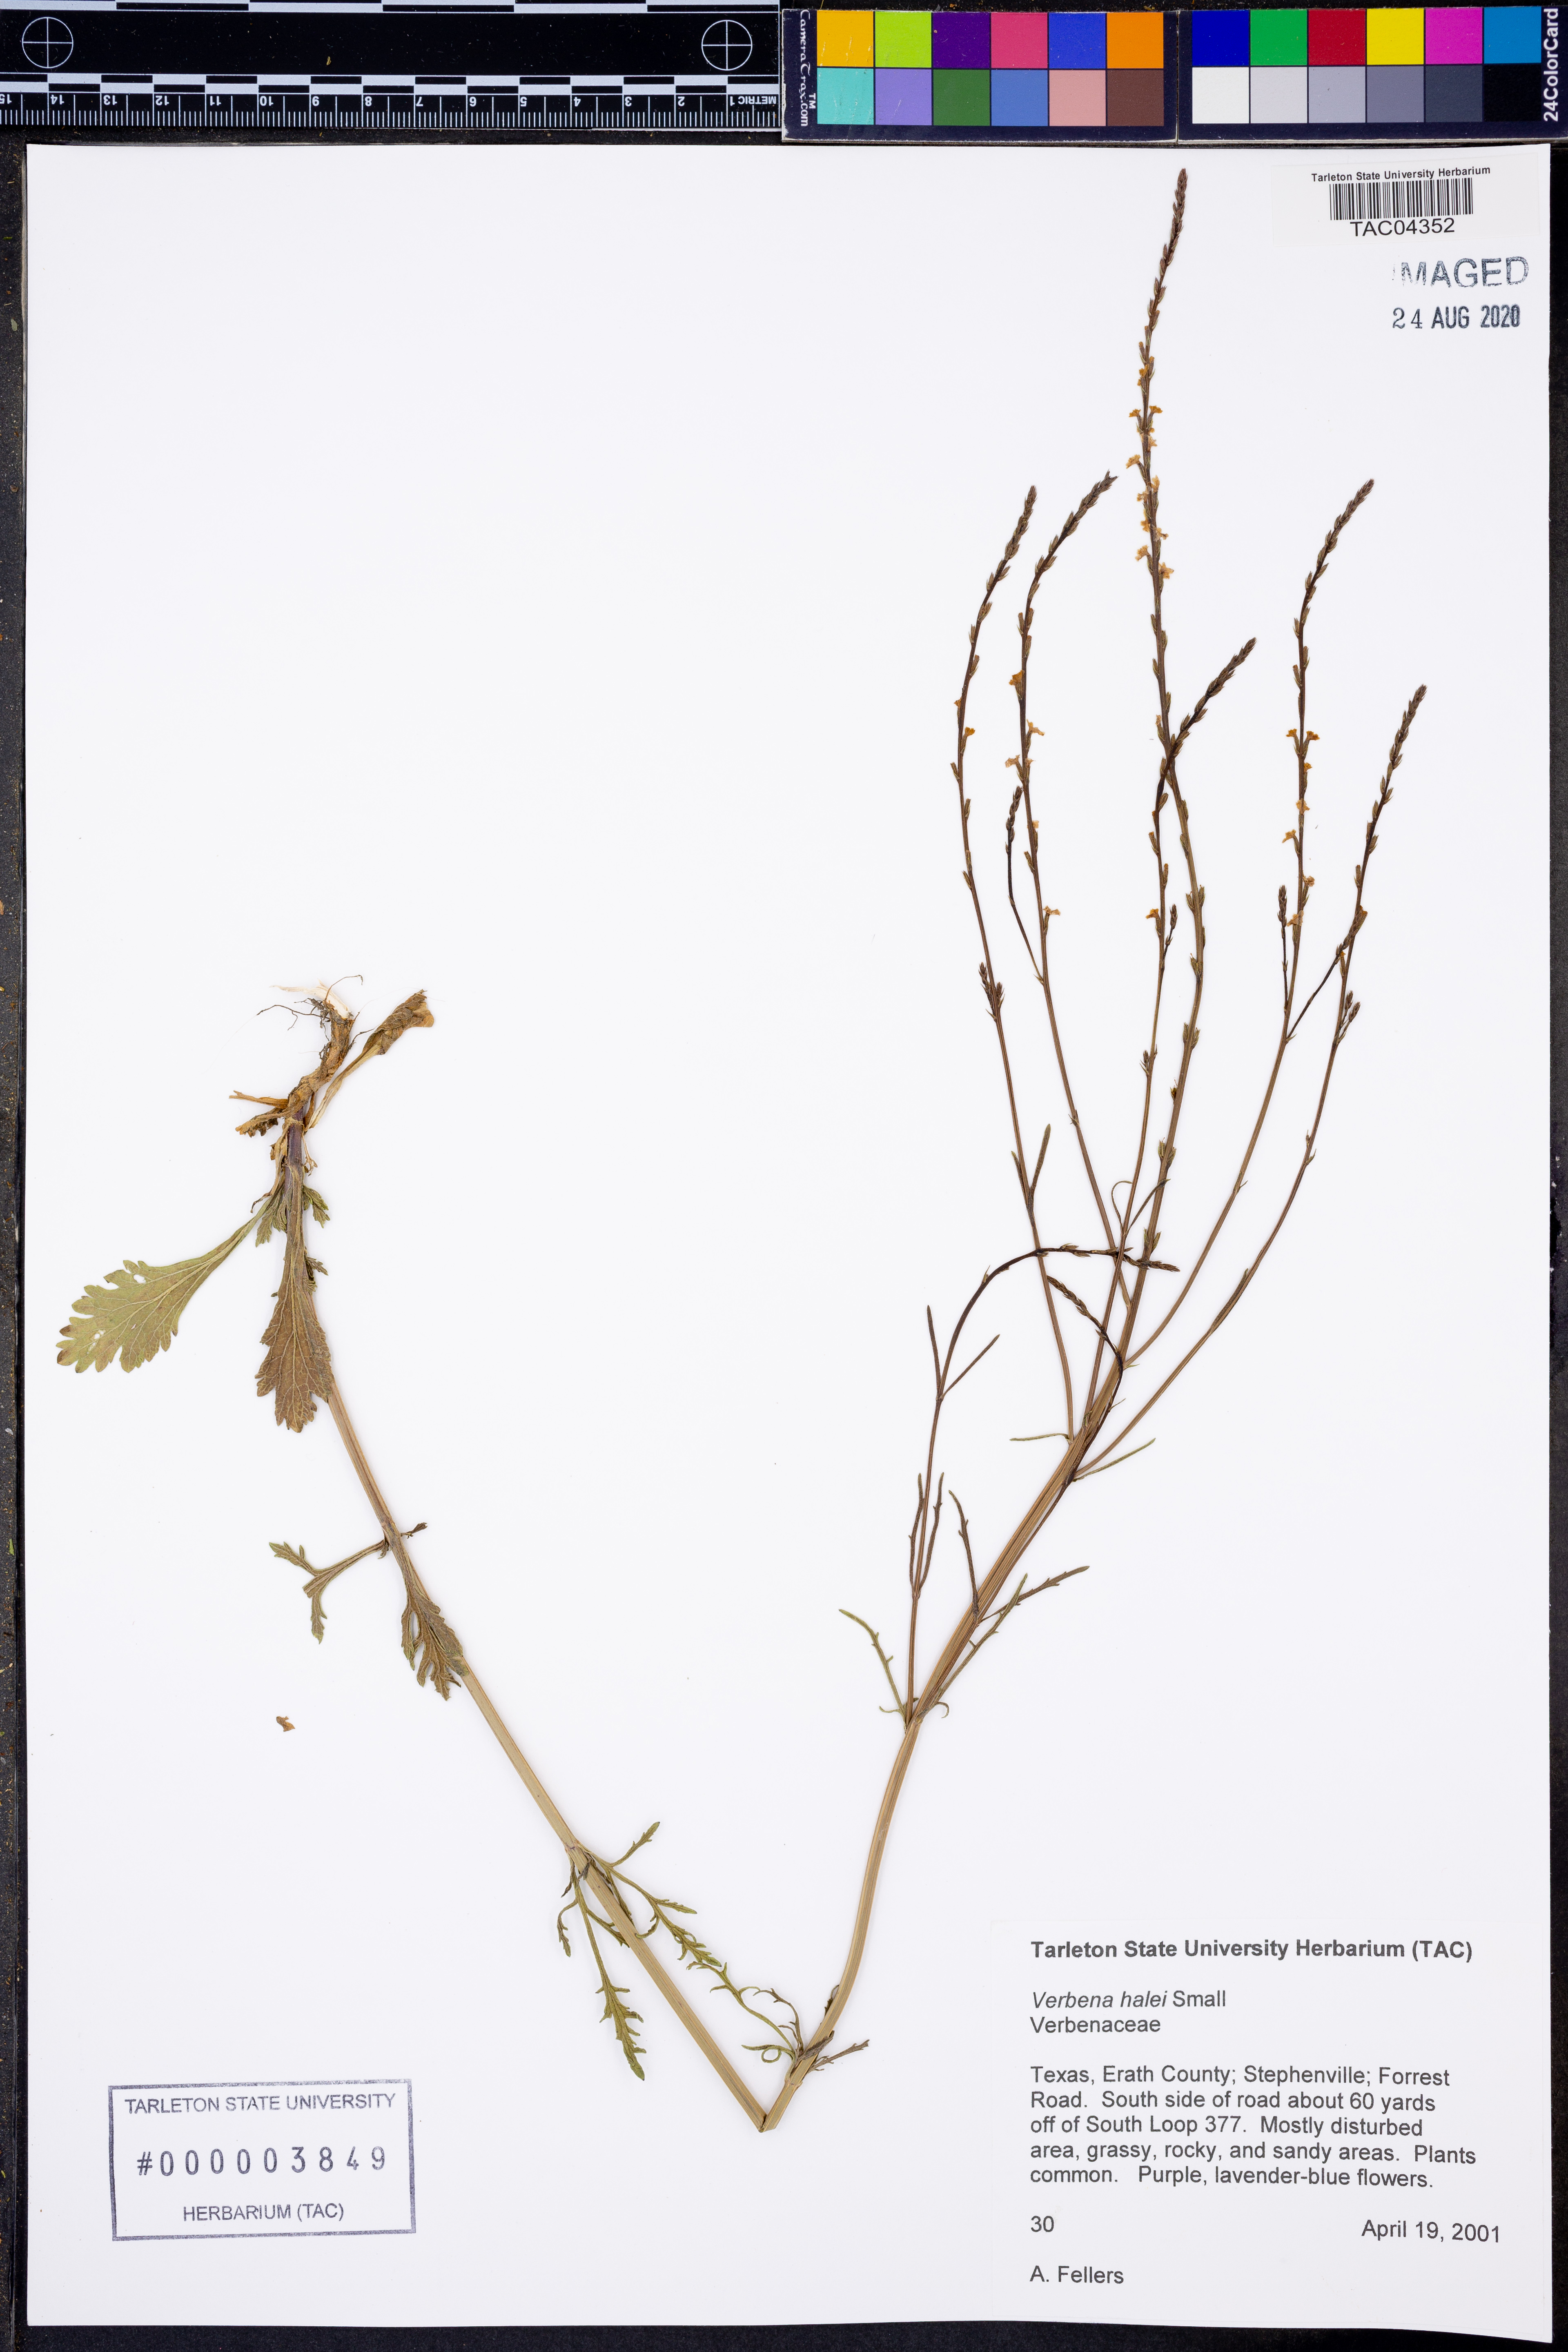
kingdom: Plantae
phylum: Tracheophyta
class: Magnoliopsida
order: Lamiales
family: Verbenaceae
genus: Verbena
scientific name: Verbena halei
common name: Texas vervain
